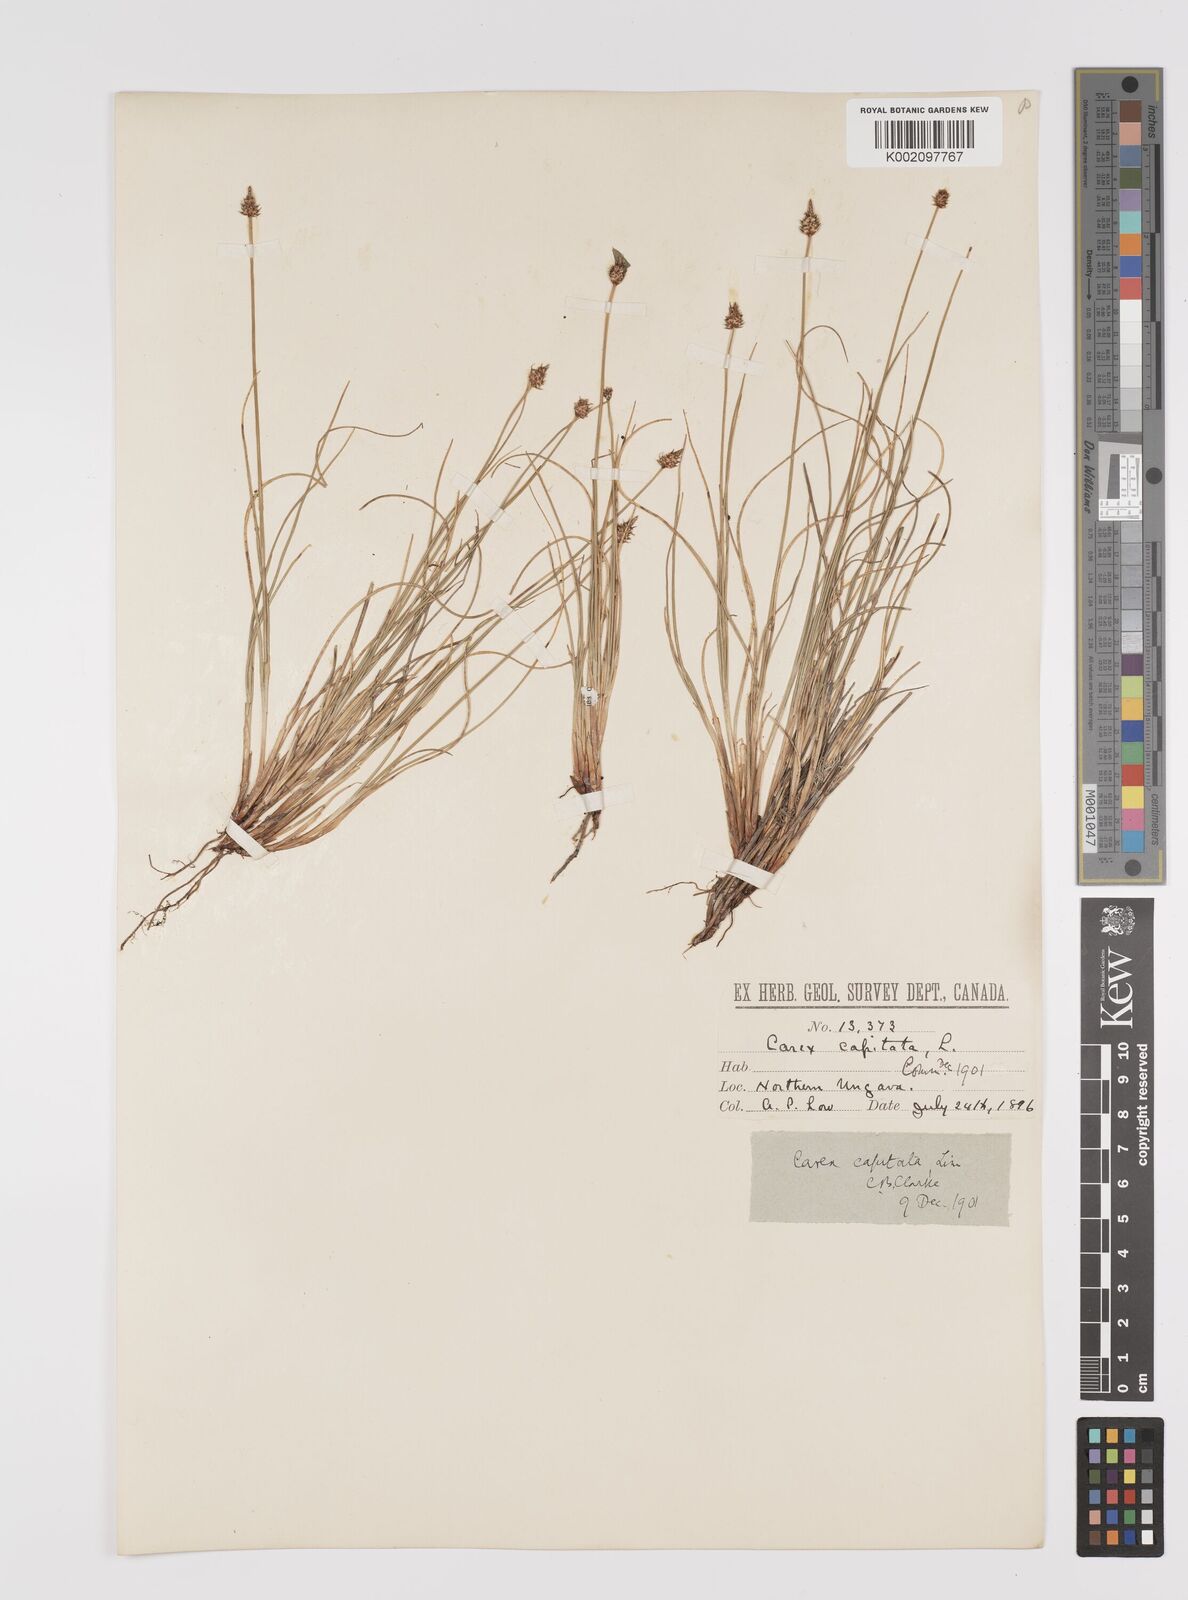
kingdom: Plantae
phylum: Tracheophyta
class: Liliopsida
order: Poales
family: Cyperaceae
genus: Carex
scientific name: Carex capitata
